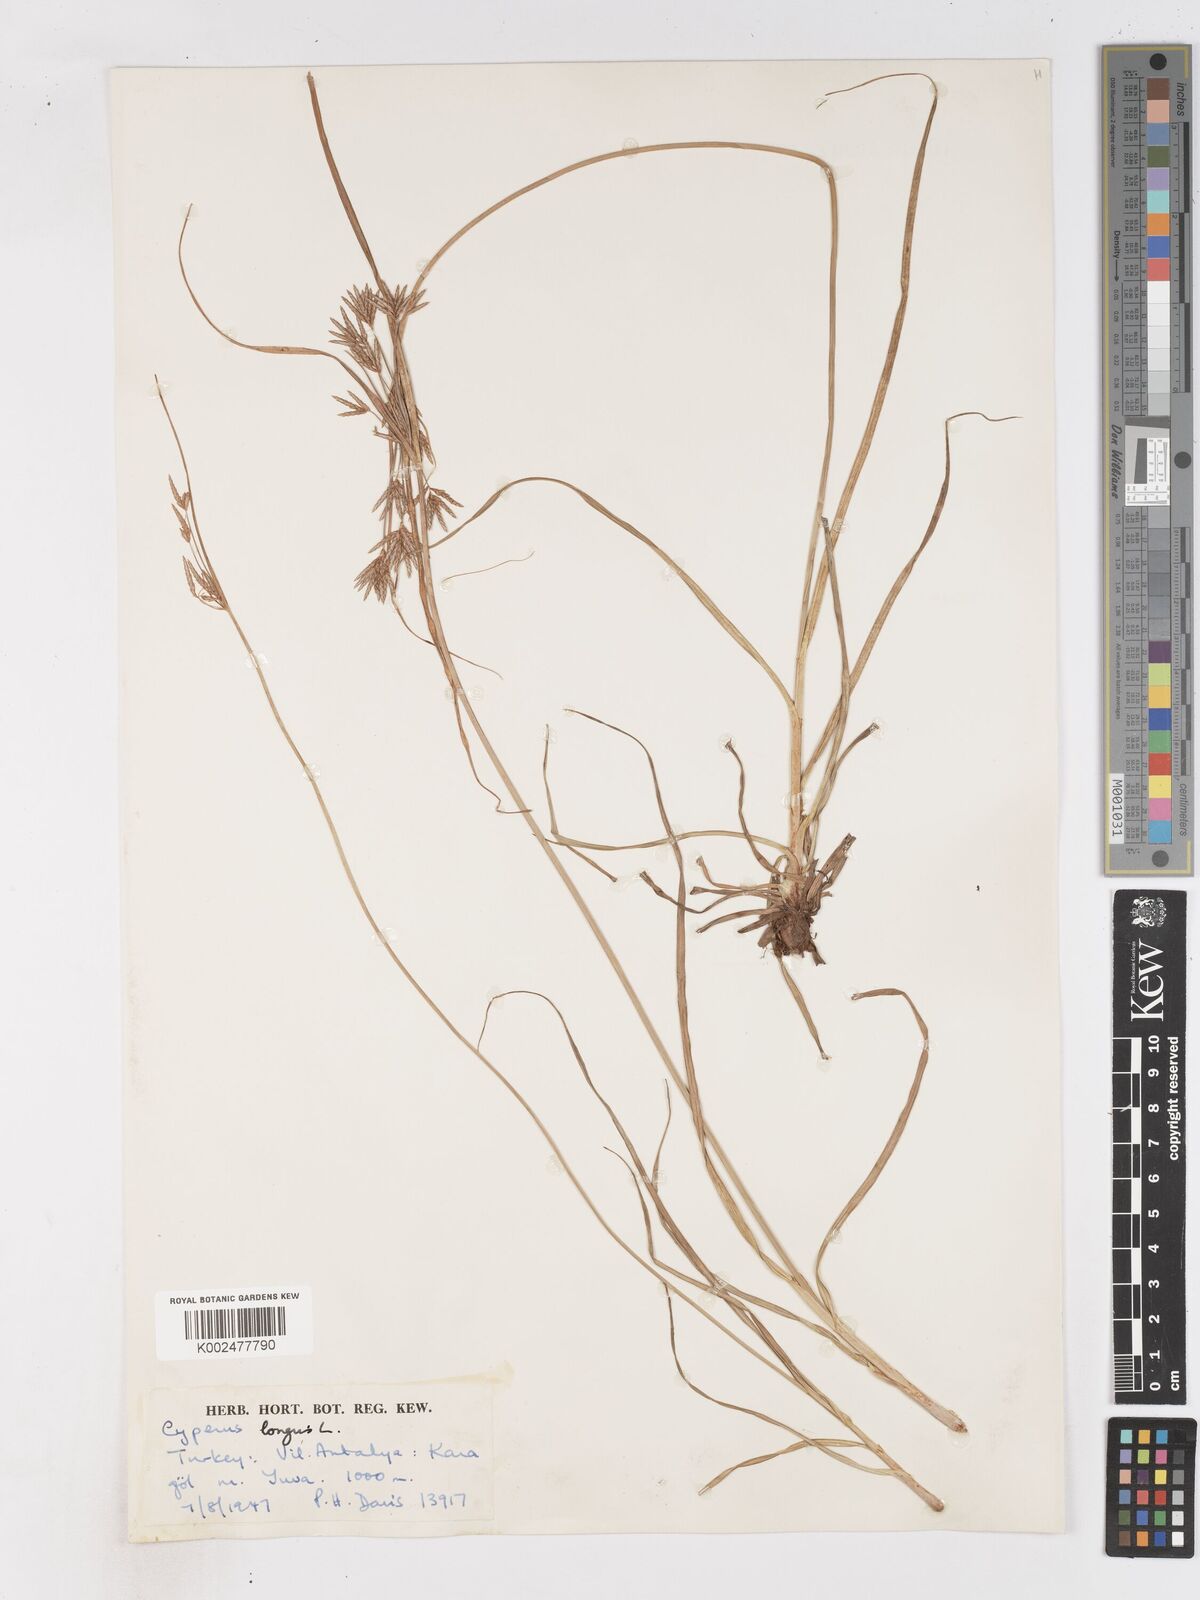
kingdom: Plantae
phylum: Tracheophyta
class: Liliopsida
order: Poales
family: Cyperaceae
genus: Cyperus
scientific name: Cyperus longus
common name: Galingale
